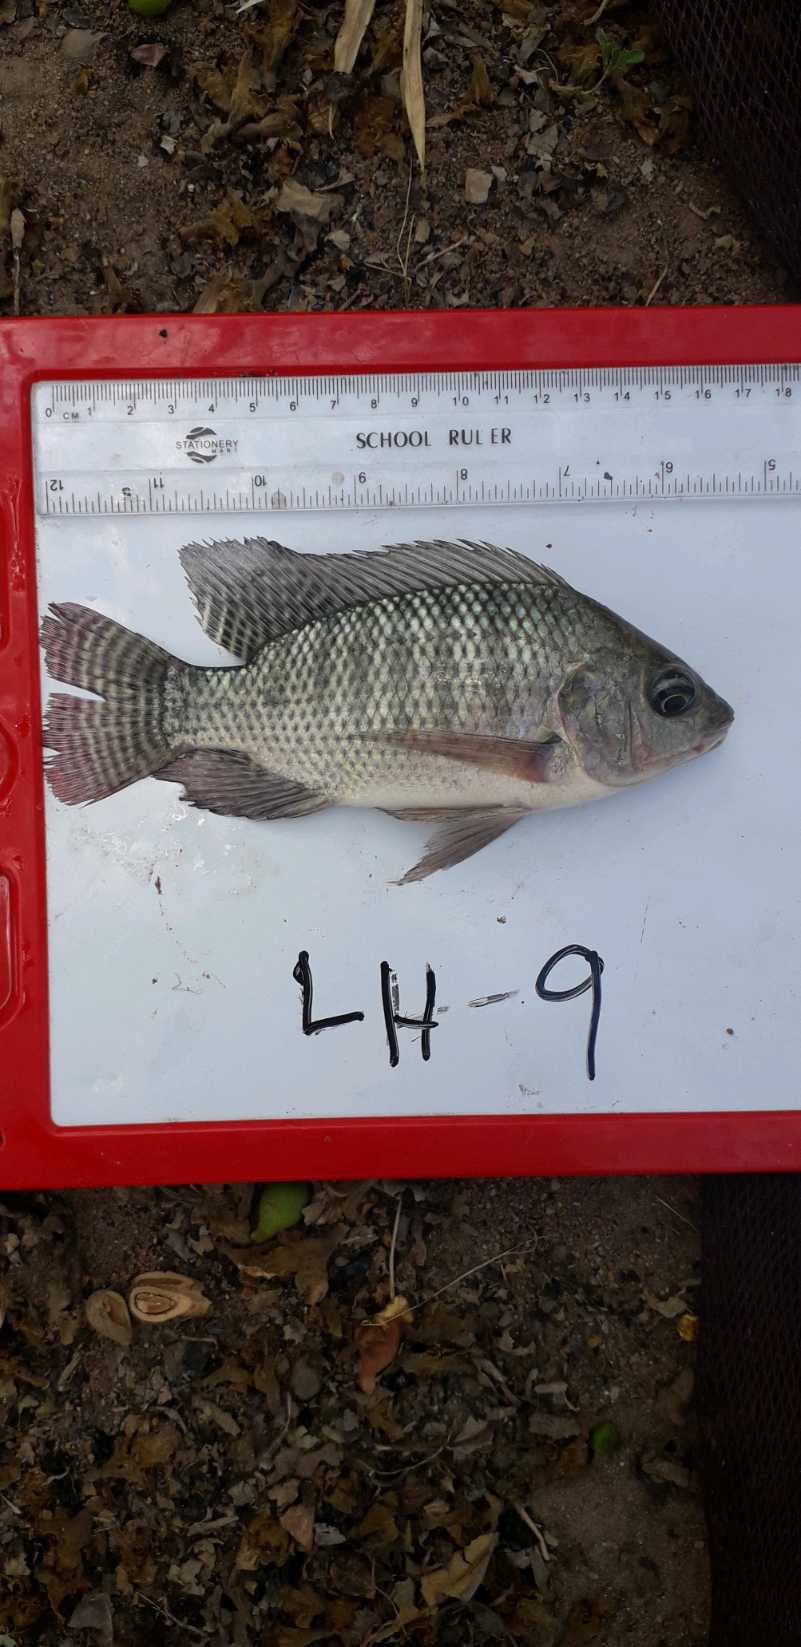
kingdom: Animalia
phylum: Chordata
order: Perciformes
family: Cichlidae
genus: Oreochromis
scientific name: Oreochromis niloticus
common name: Nile tilapia
